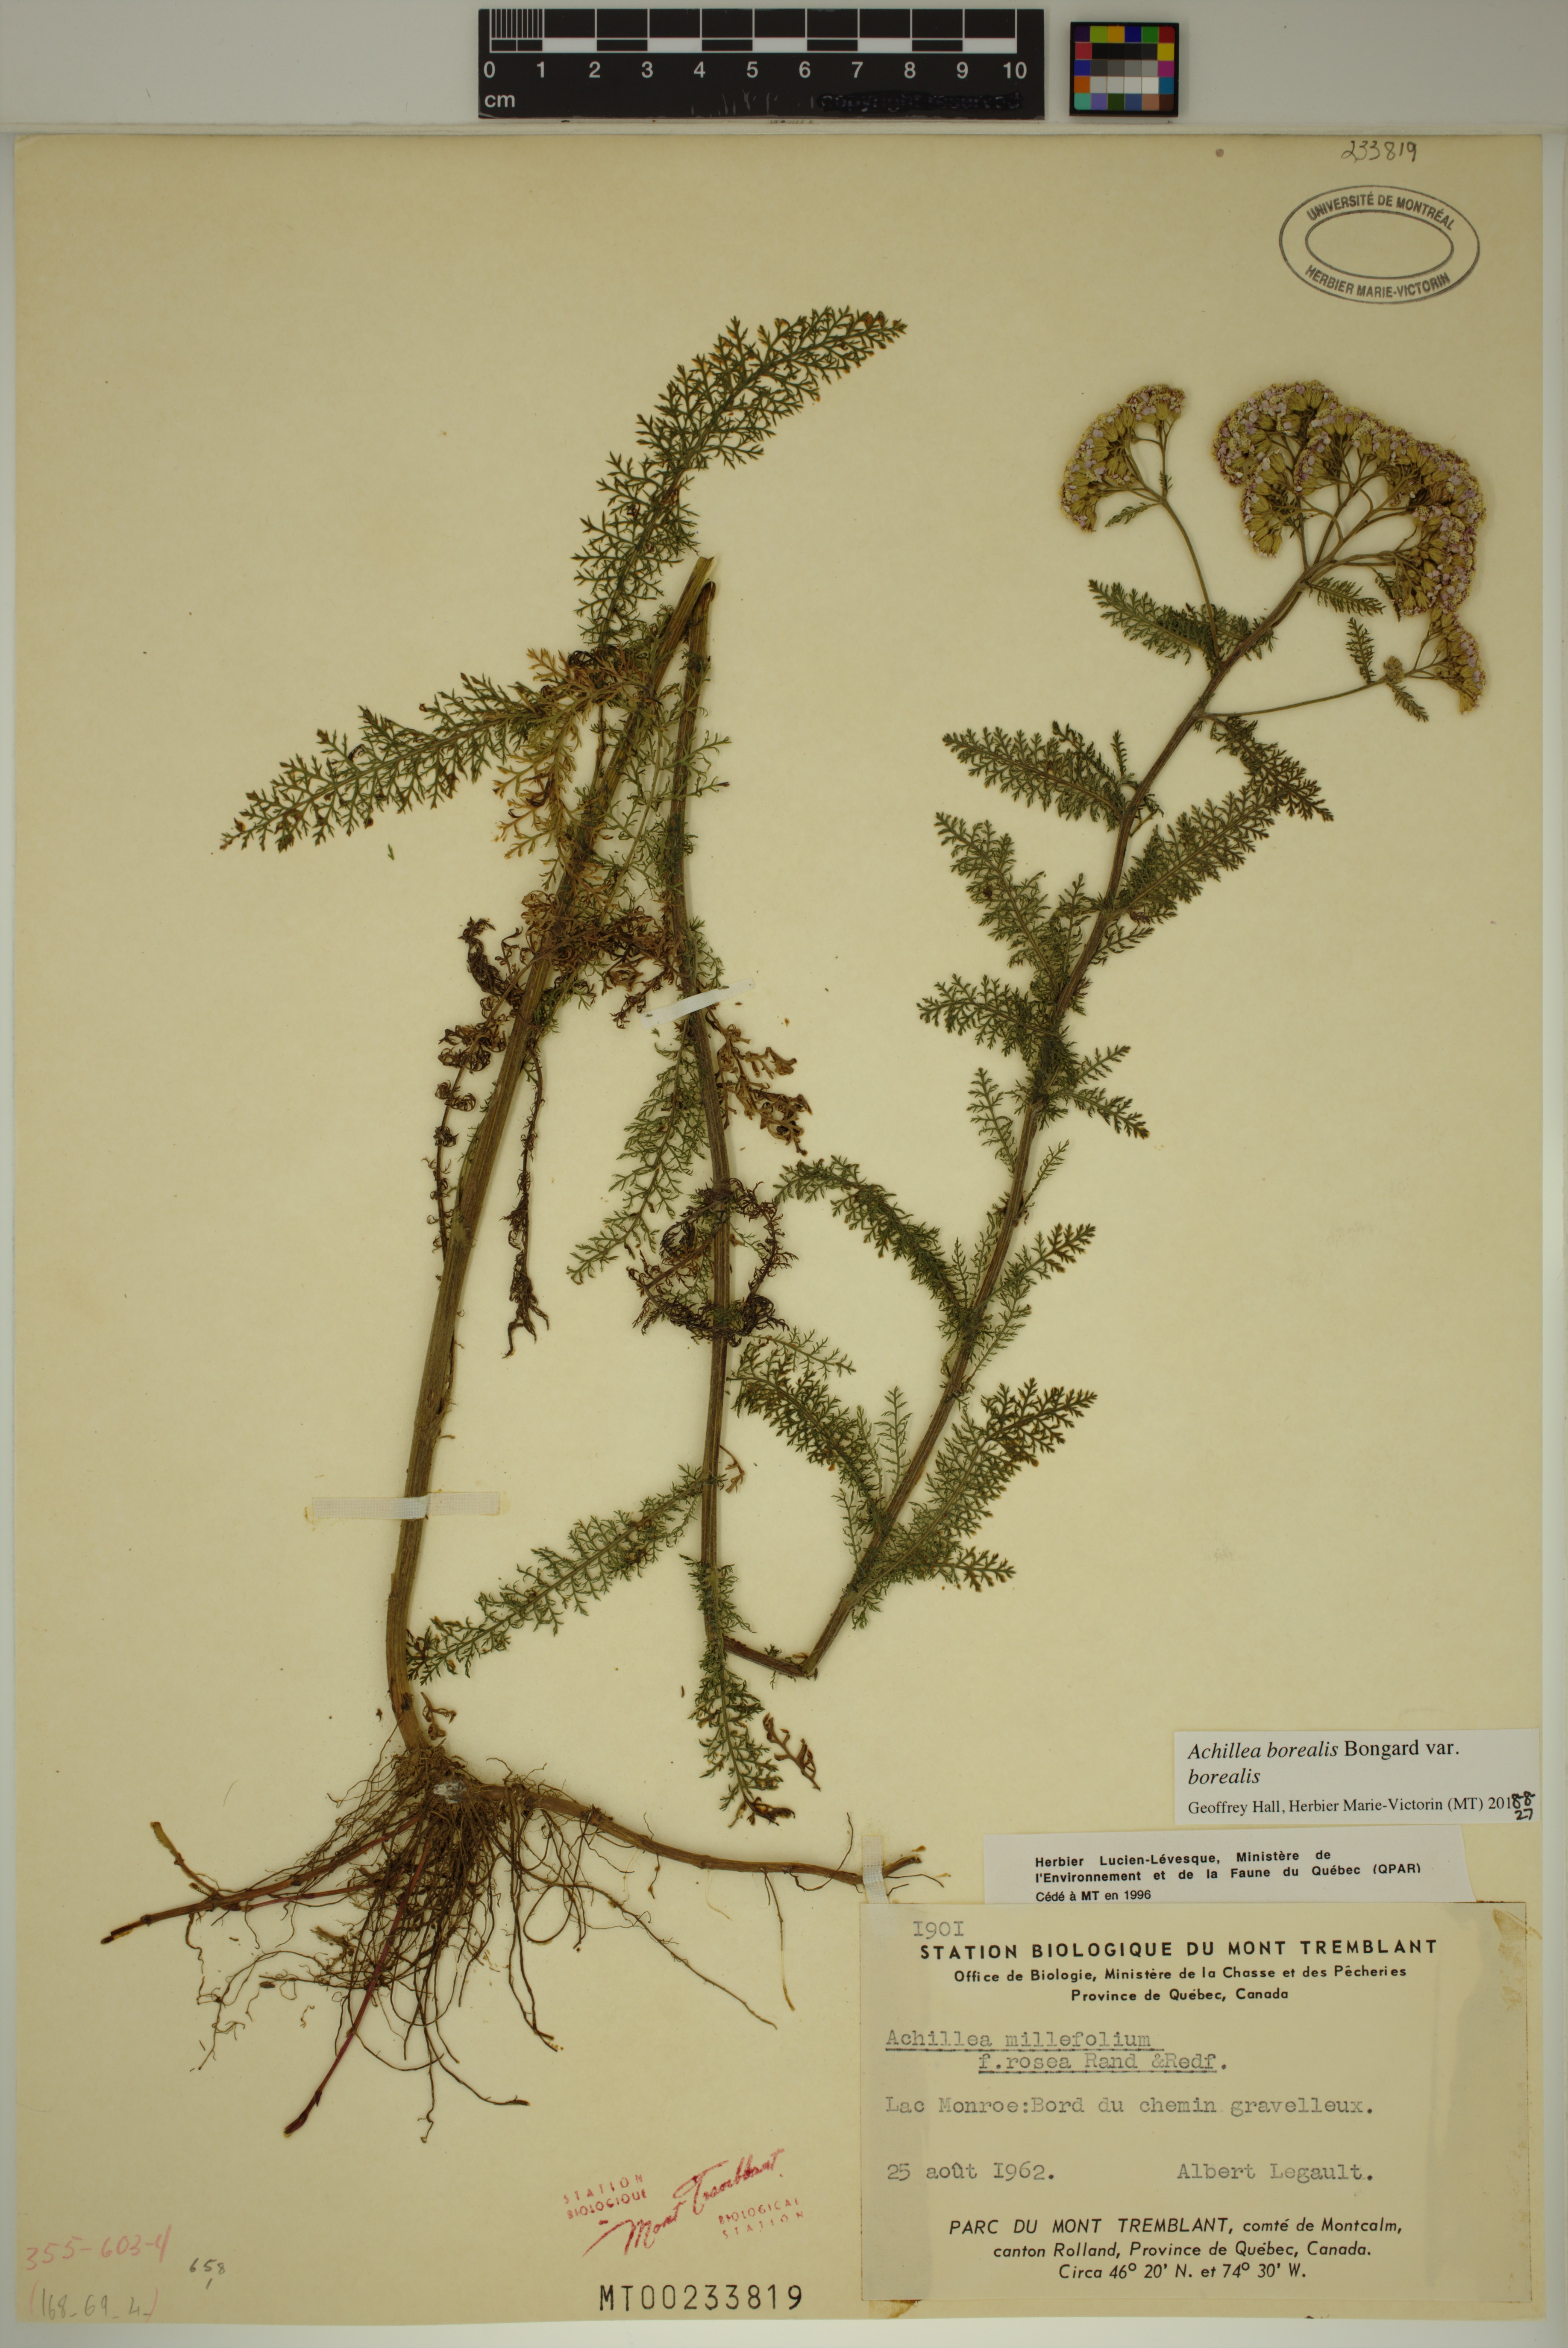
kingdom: Plantae
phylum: Tracheophyta
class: Magnoliopsida
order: Asterales
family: Asteraceae
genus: Achillea
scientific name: Achillea millefolium
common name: Yarrow
